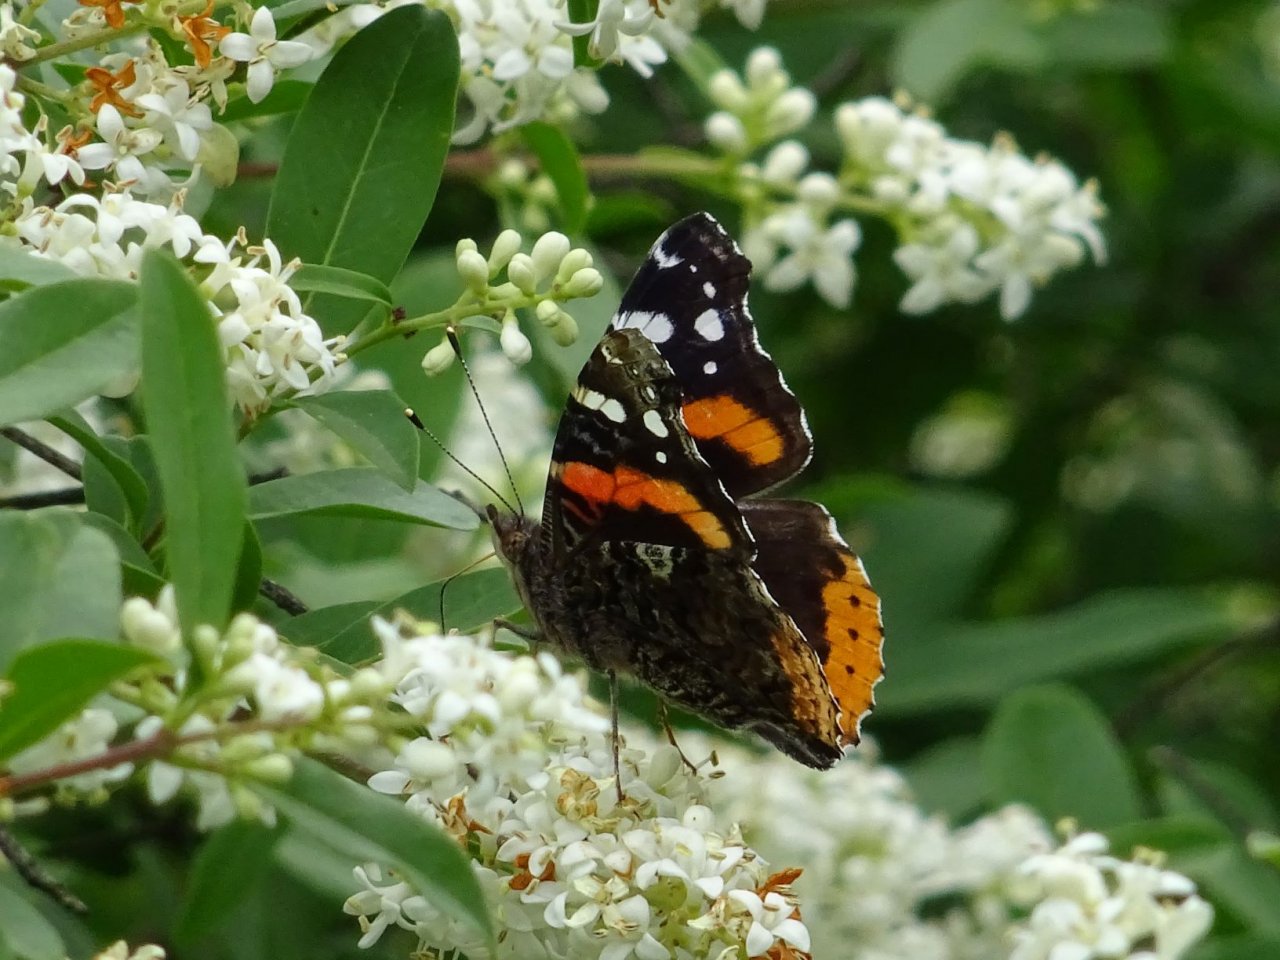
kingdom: Animalia
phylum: Arthropoda
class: Insecta
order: Lepidoptera
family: Nymphalidae
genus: Vanessa
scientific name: Vanessa atalanta
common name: Red Admiral
